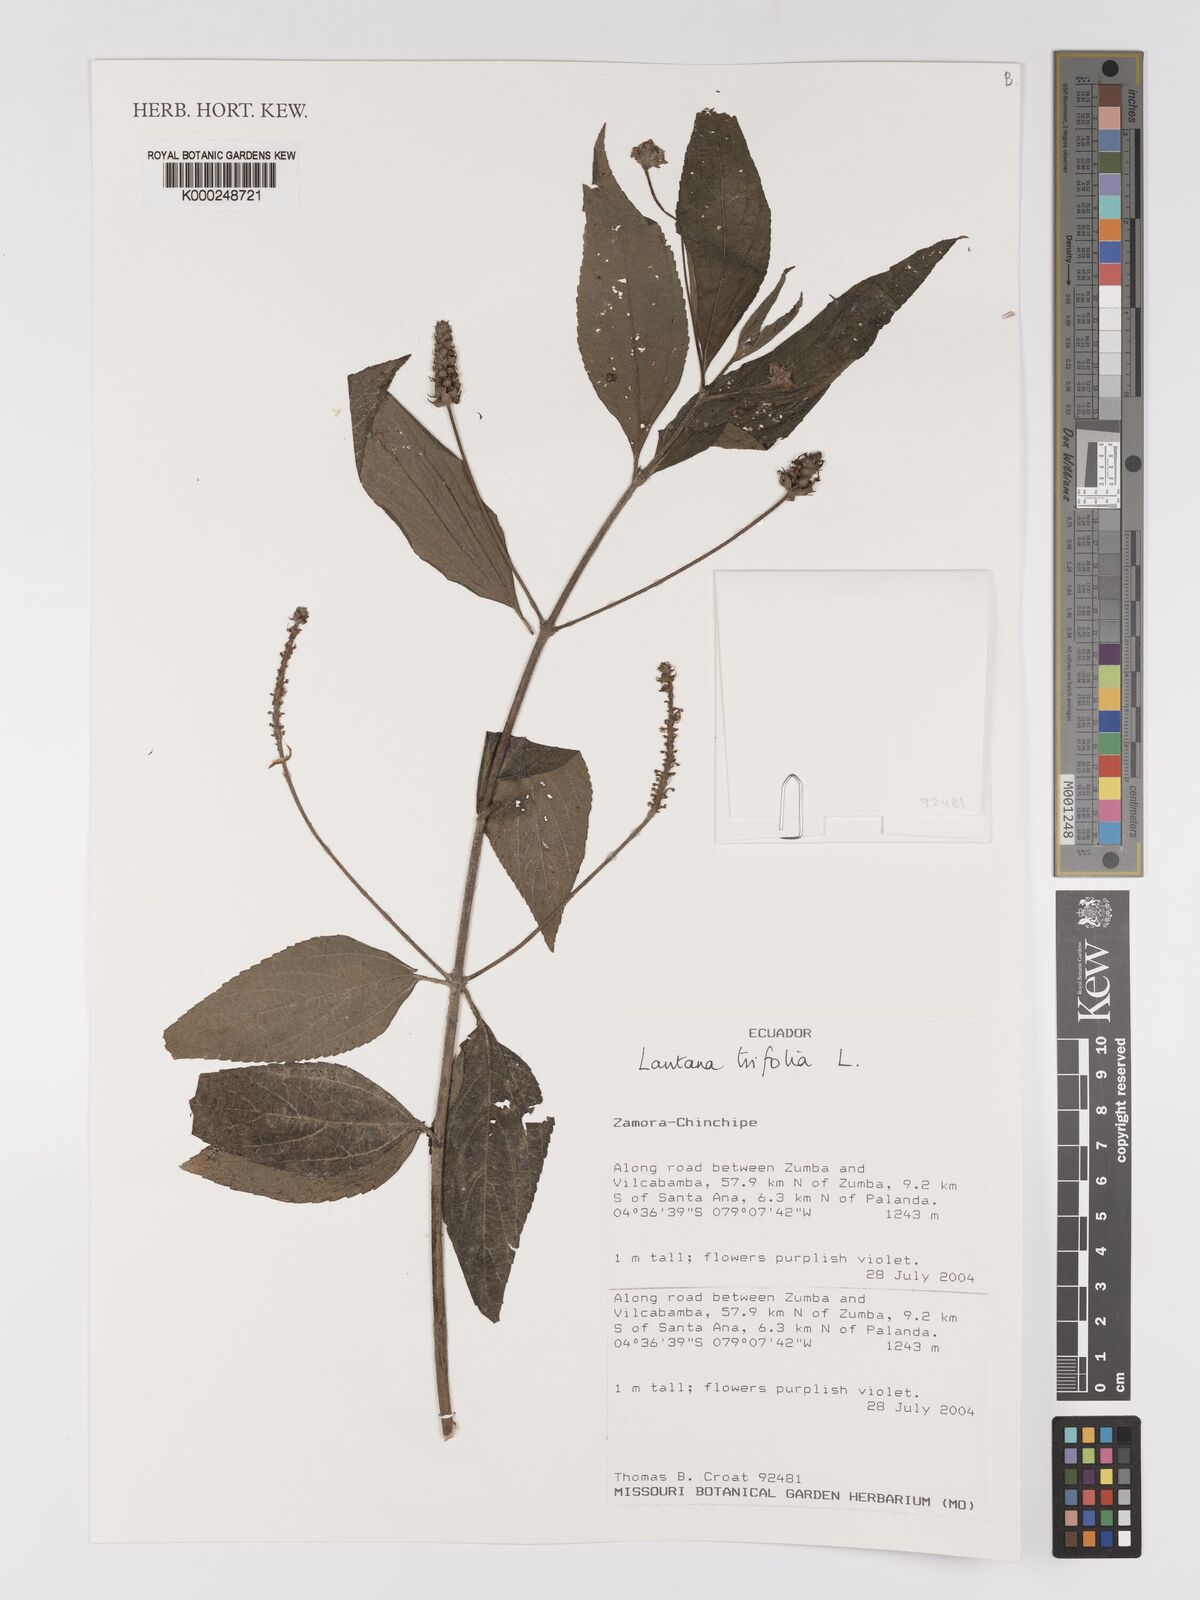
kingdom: Plantae
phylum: Tracheophyta
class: Magnoliopsida
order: Lamiales
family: Verbenaceae
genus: Lantana
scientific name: Lantana trifolia
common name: Sweet-sage
